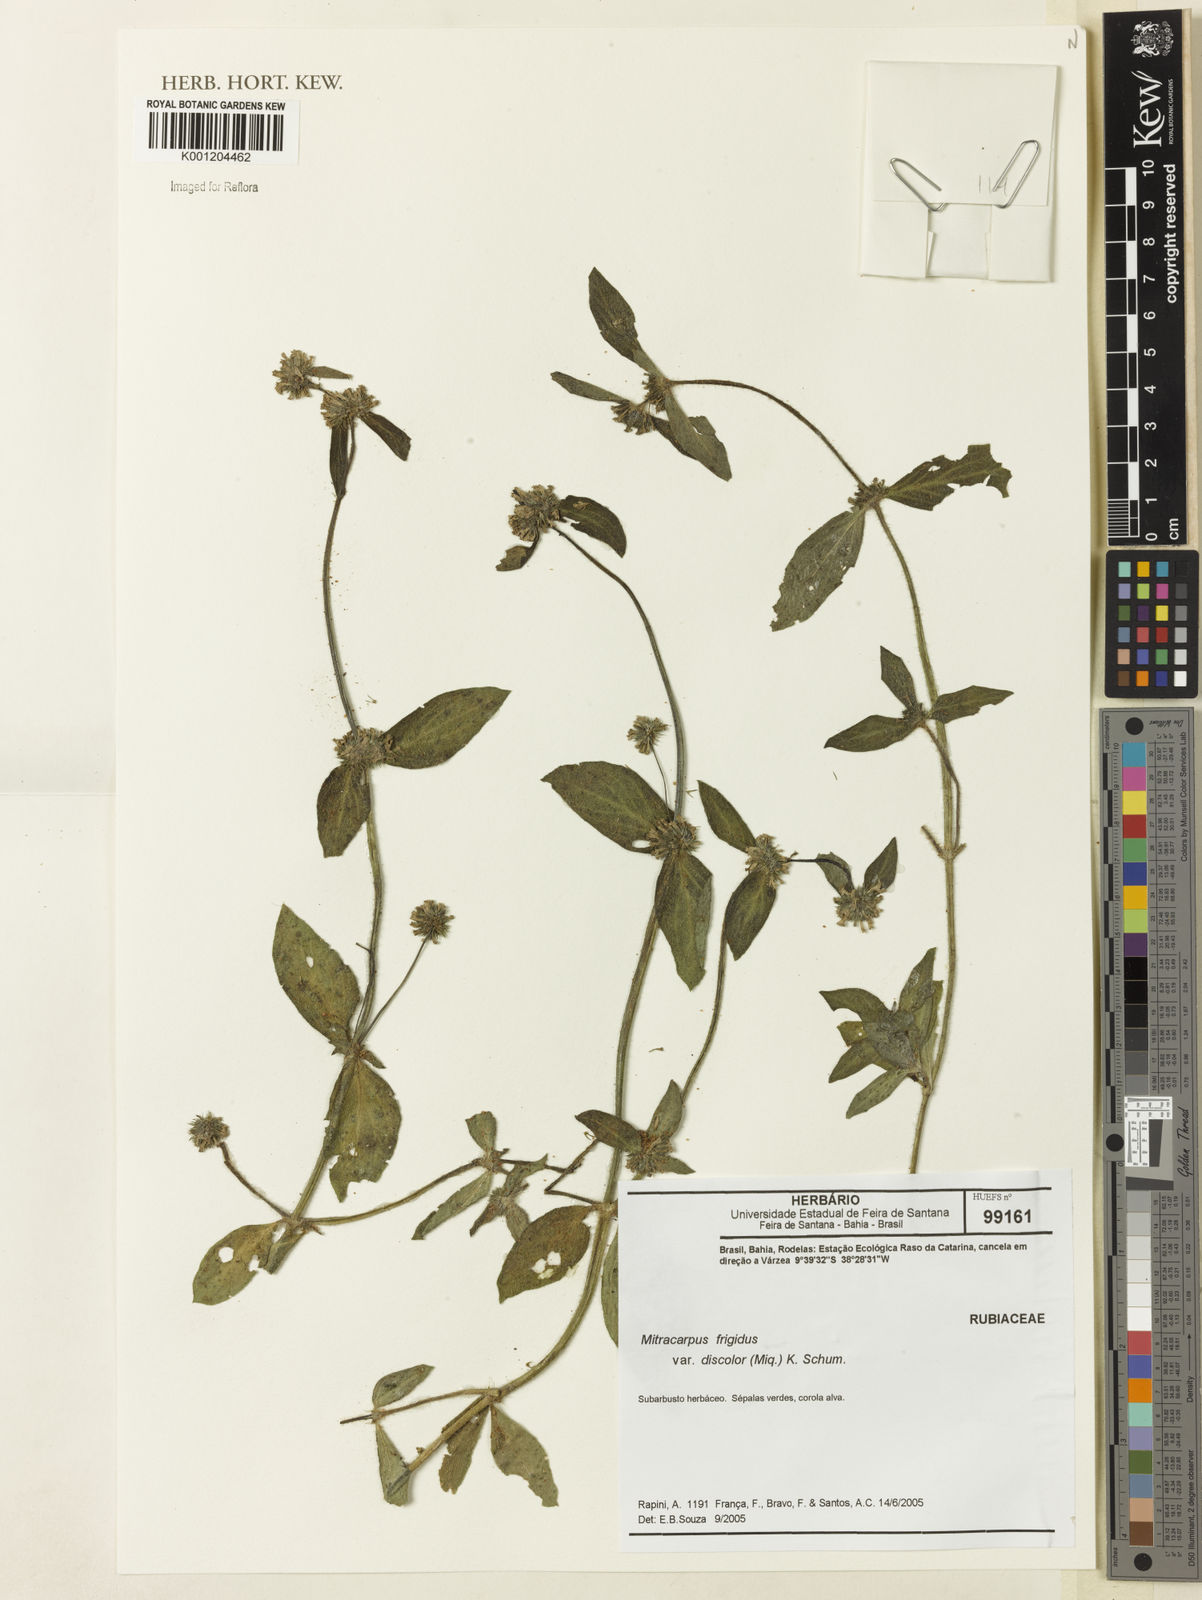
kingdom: Plantae
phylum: Tracheophyta
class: Magnoliopsida
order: Gentianales
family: Rubiaceae
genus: Mitracarpus
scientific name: Mitracarpus frigidus
